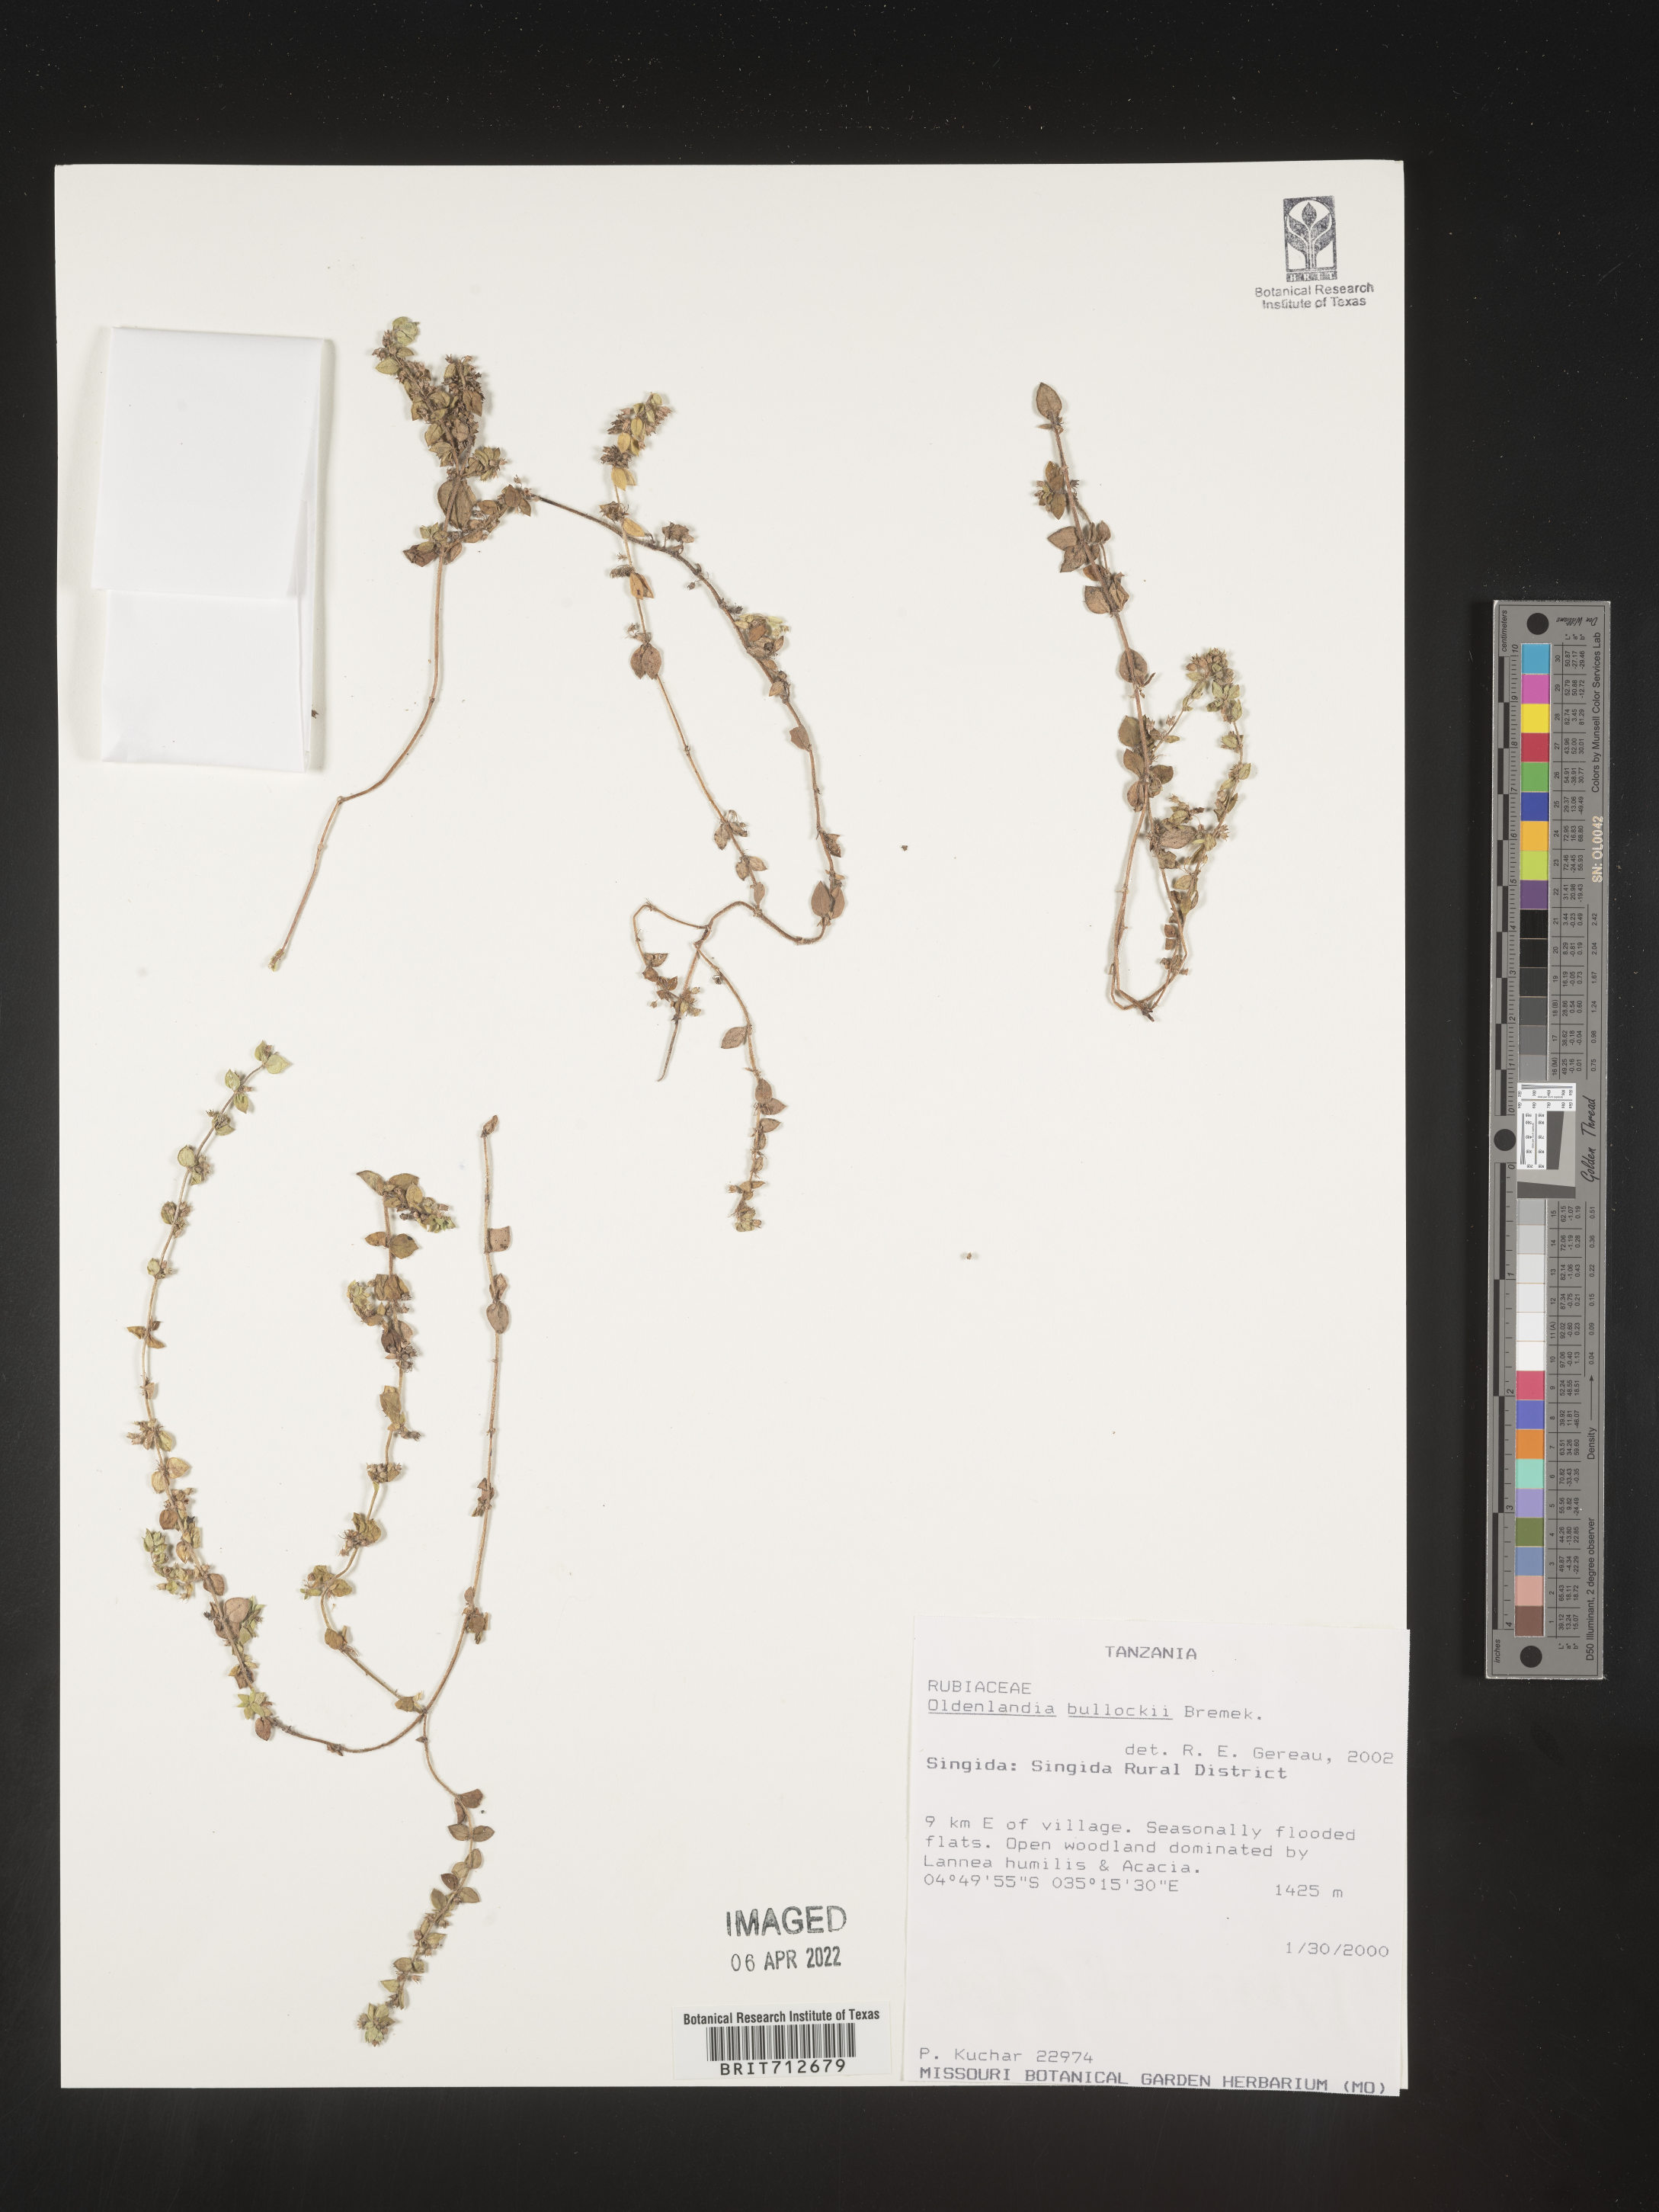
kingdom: Plantae
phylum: Tracheophyta
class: Magnoliopsida
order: Gentianales
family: Rubiaceae
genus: Oldenlandia
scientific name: Oldenlandia
